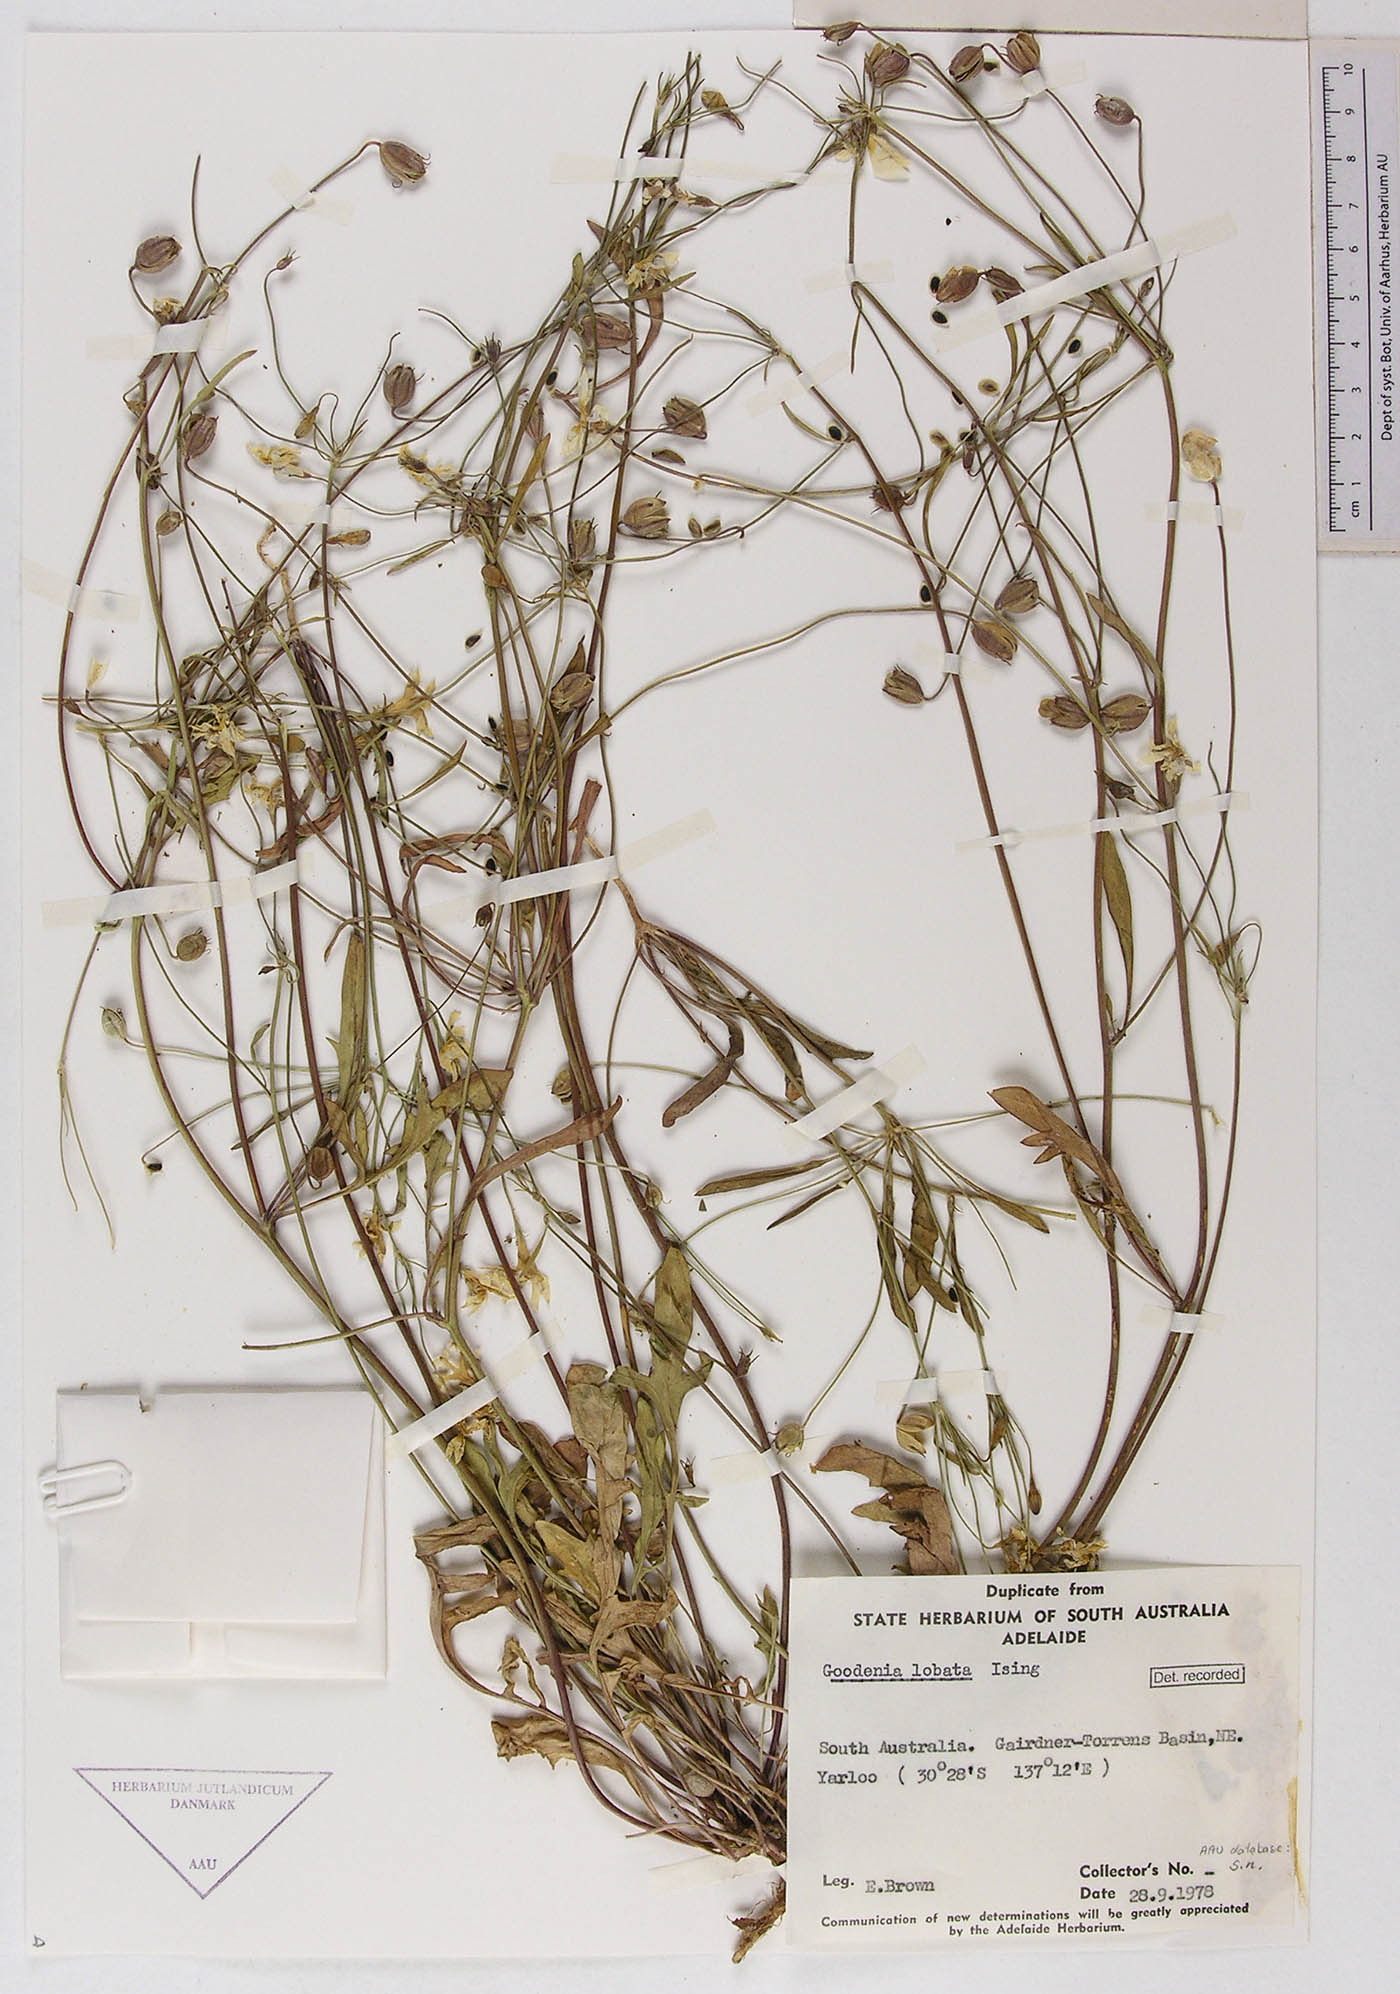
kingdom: Plantae
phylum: Tracheophyta
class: Magnoliopsida
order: Asterales
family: Goodeniaceae
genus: Goodenia
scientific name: Goodenia lobata
